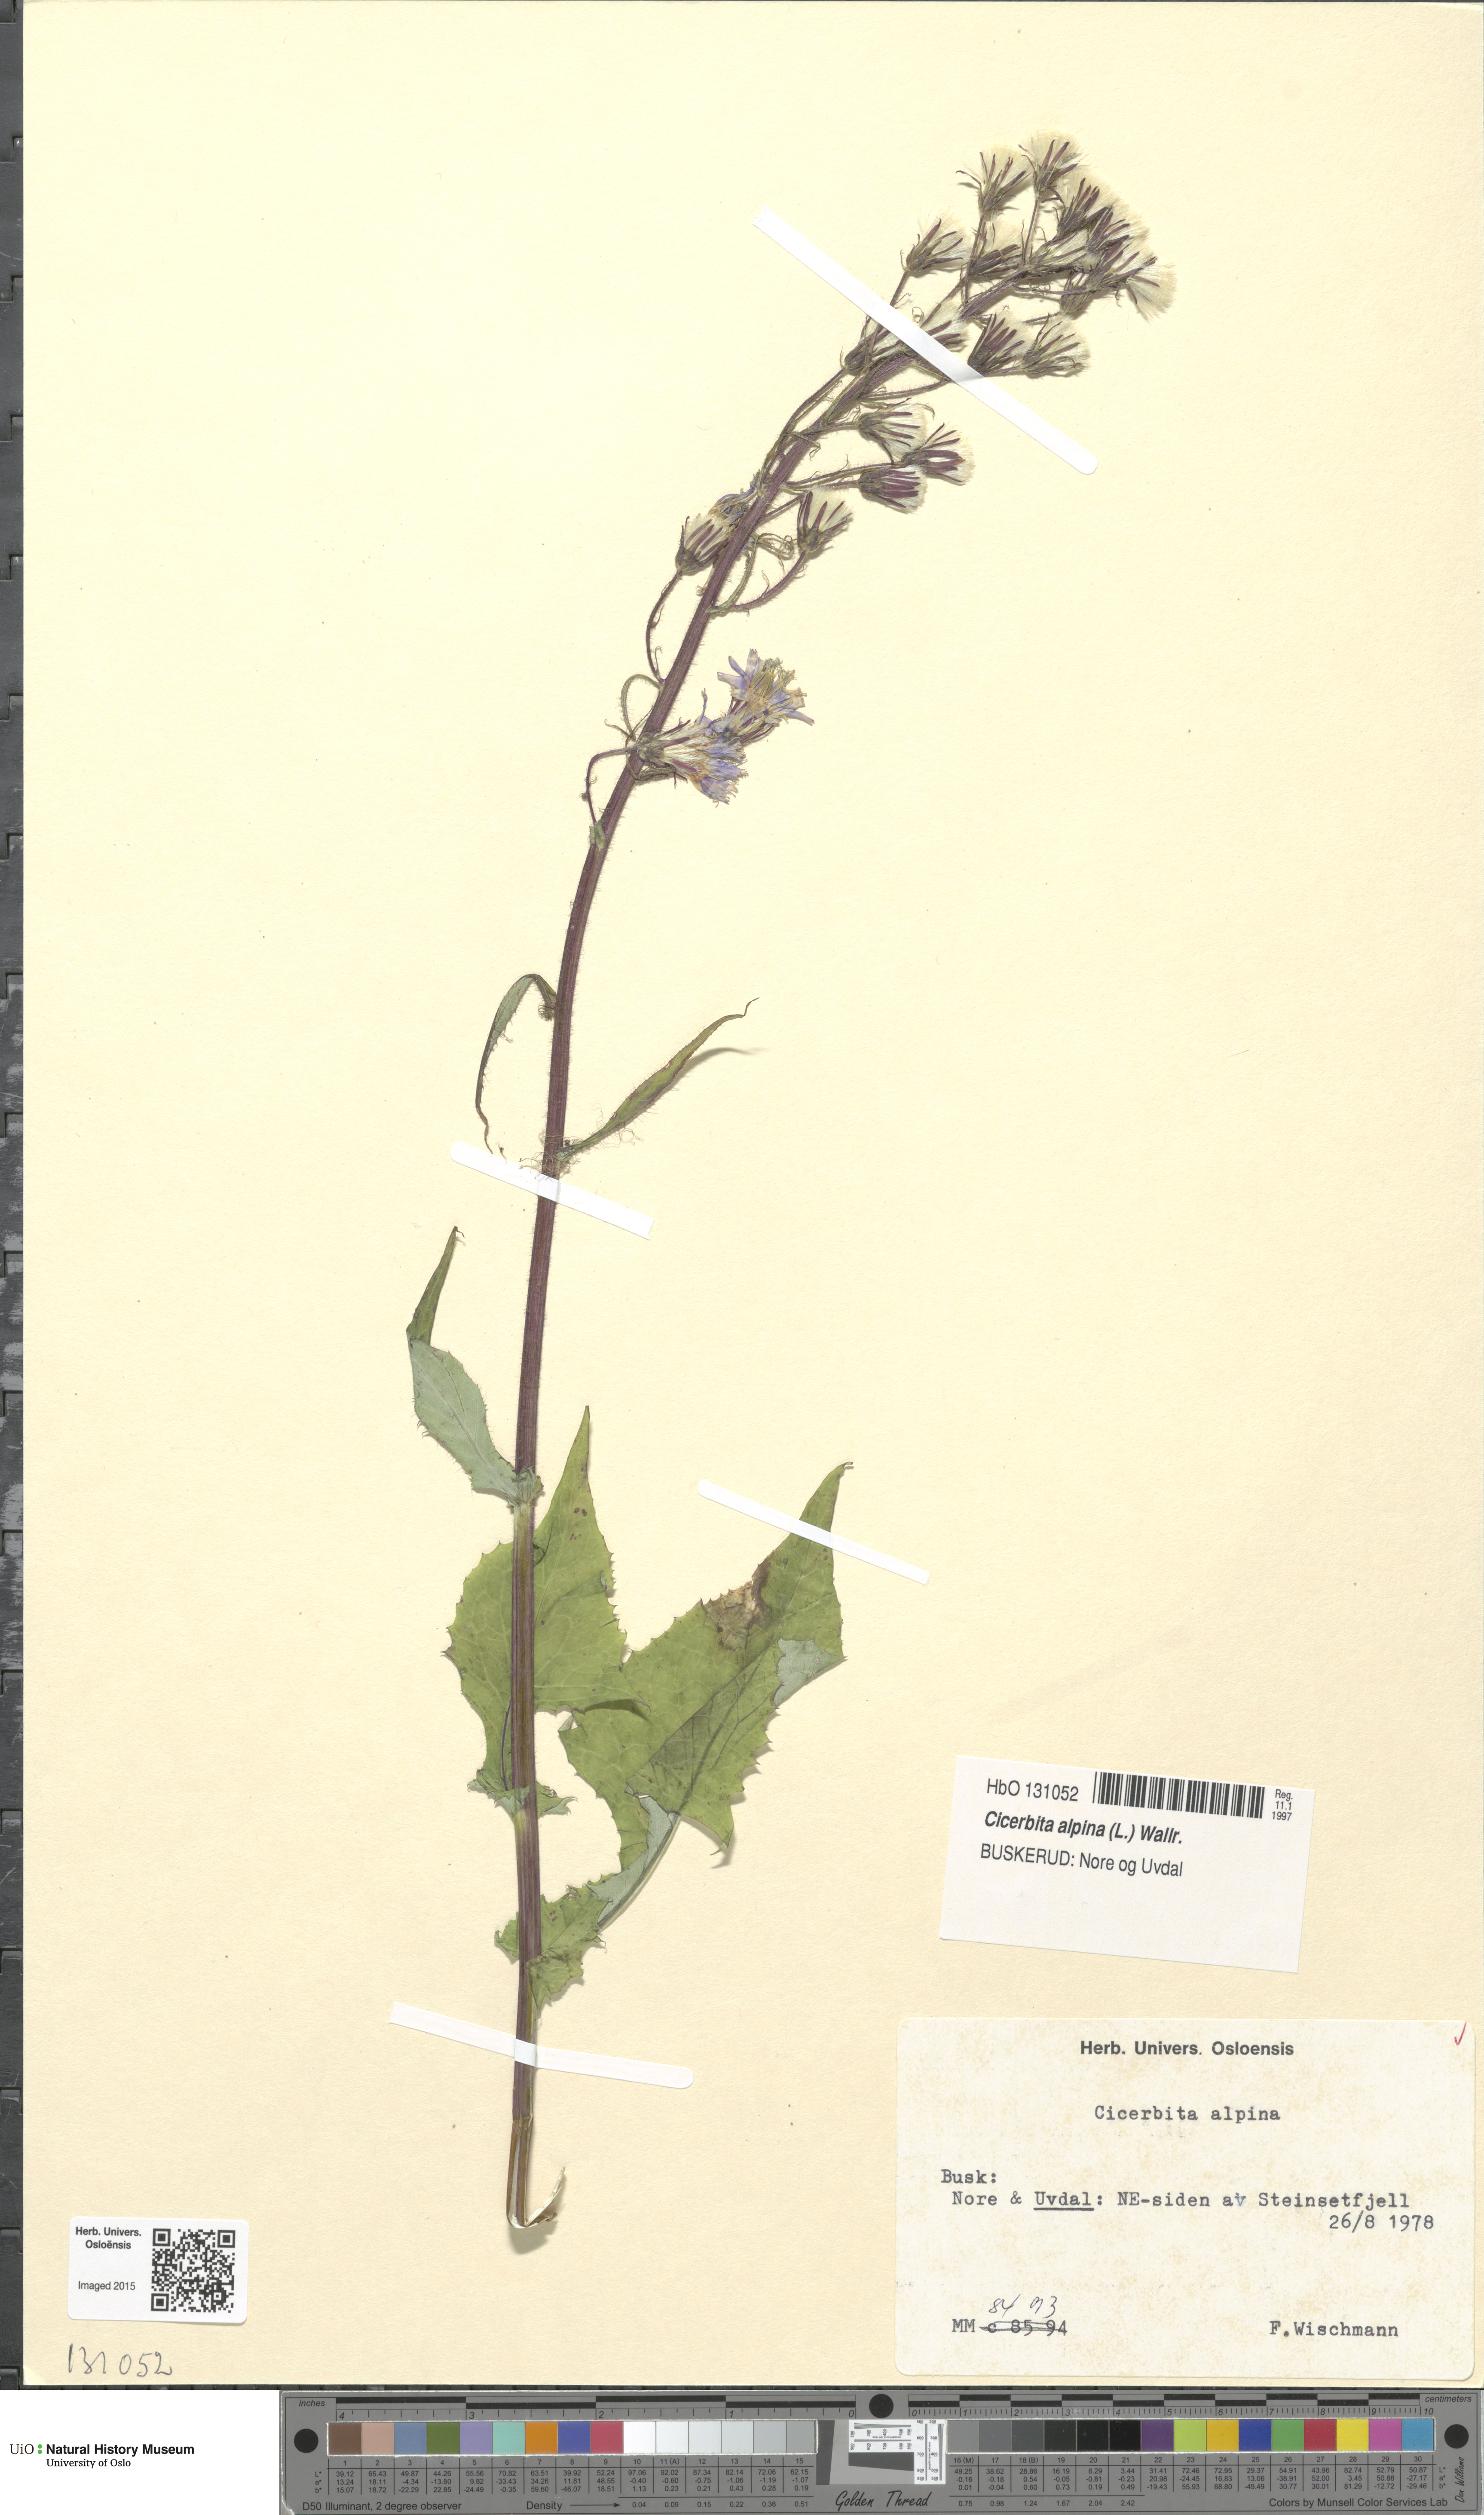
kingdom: Plantae
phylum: Tracheophyta
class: Magnoliopsida
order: Asterales
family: Asteraceae
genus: Cicerbita
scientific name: Cicerbita alpina
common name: Alpine blue-sow-thistle
